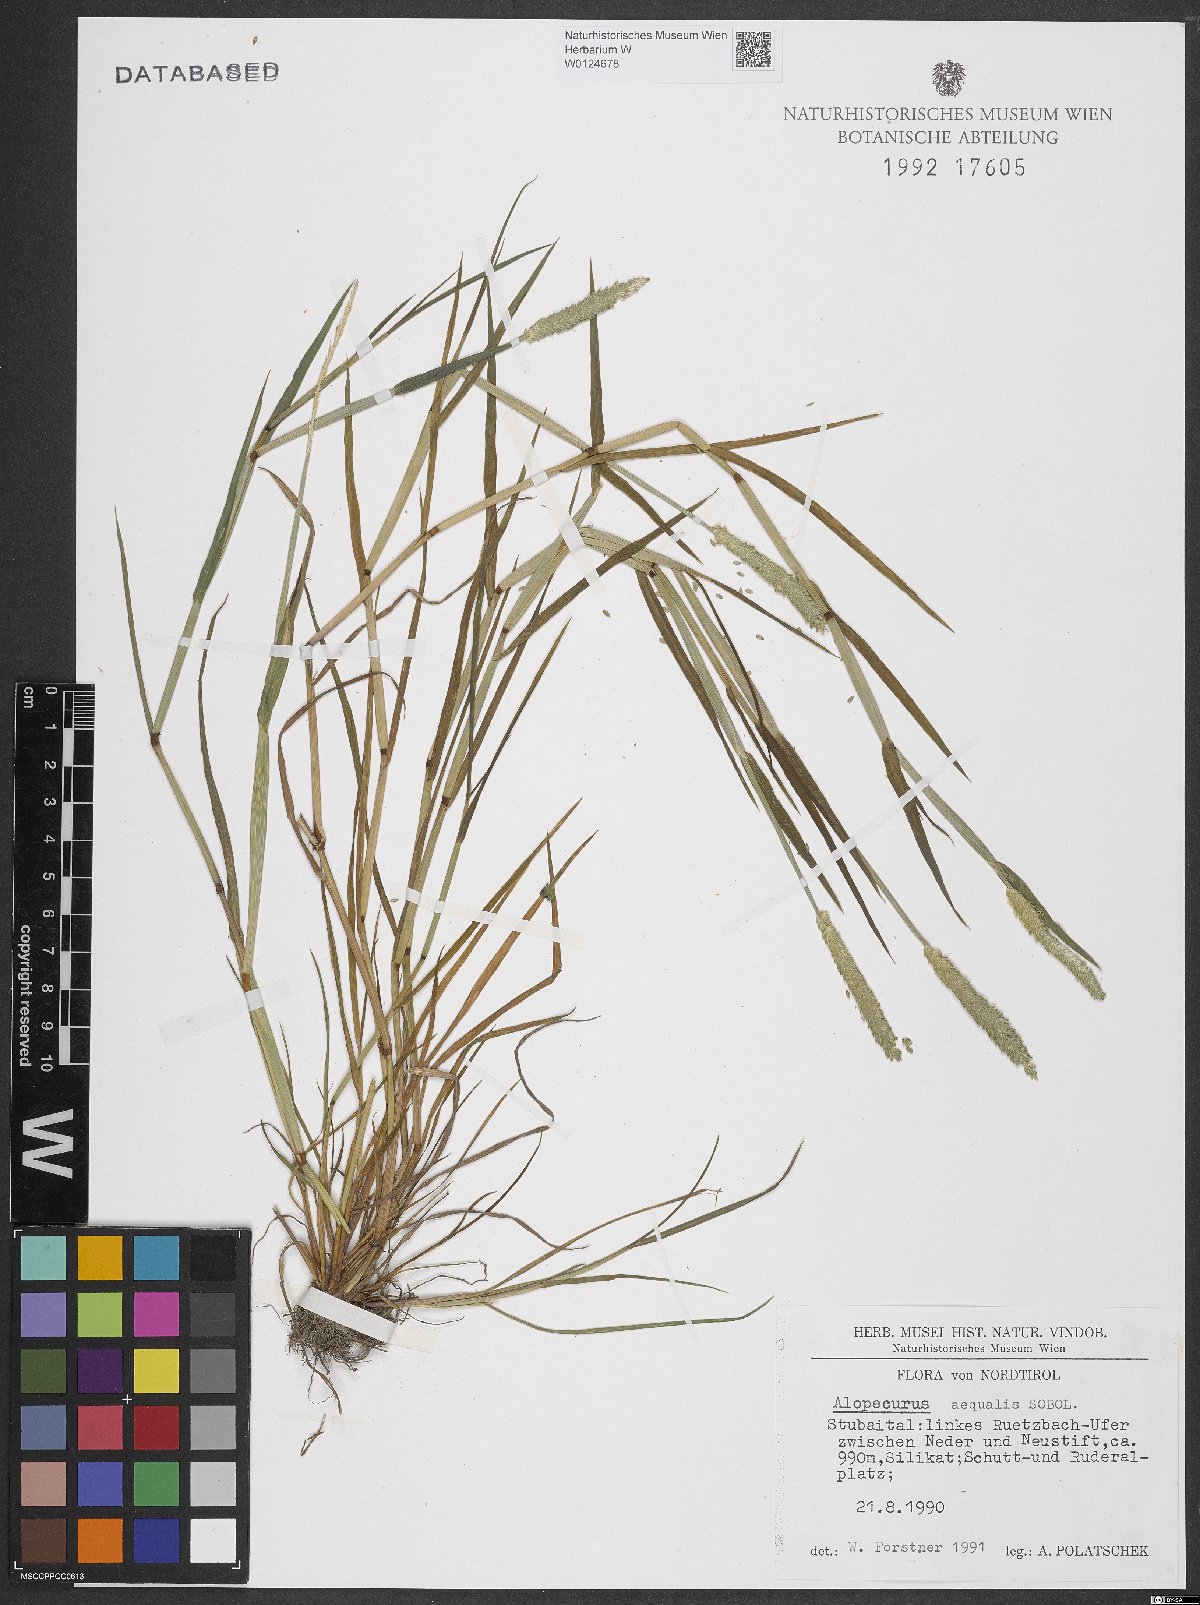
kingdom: Plantae
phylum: Tracheophyta
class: Liliopsida
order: Poales
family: Poaceae
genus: Alopecurus
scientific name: Alopecurus aequalis
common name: Orange foxtail
